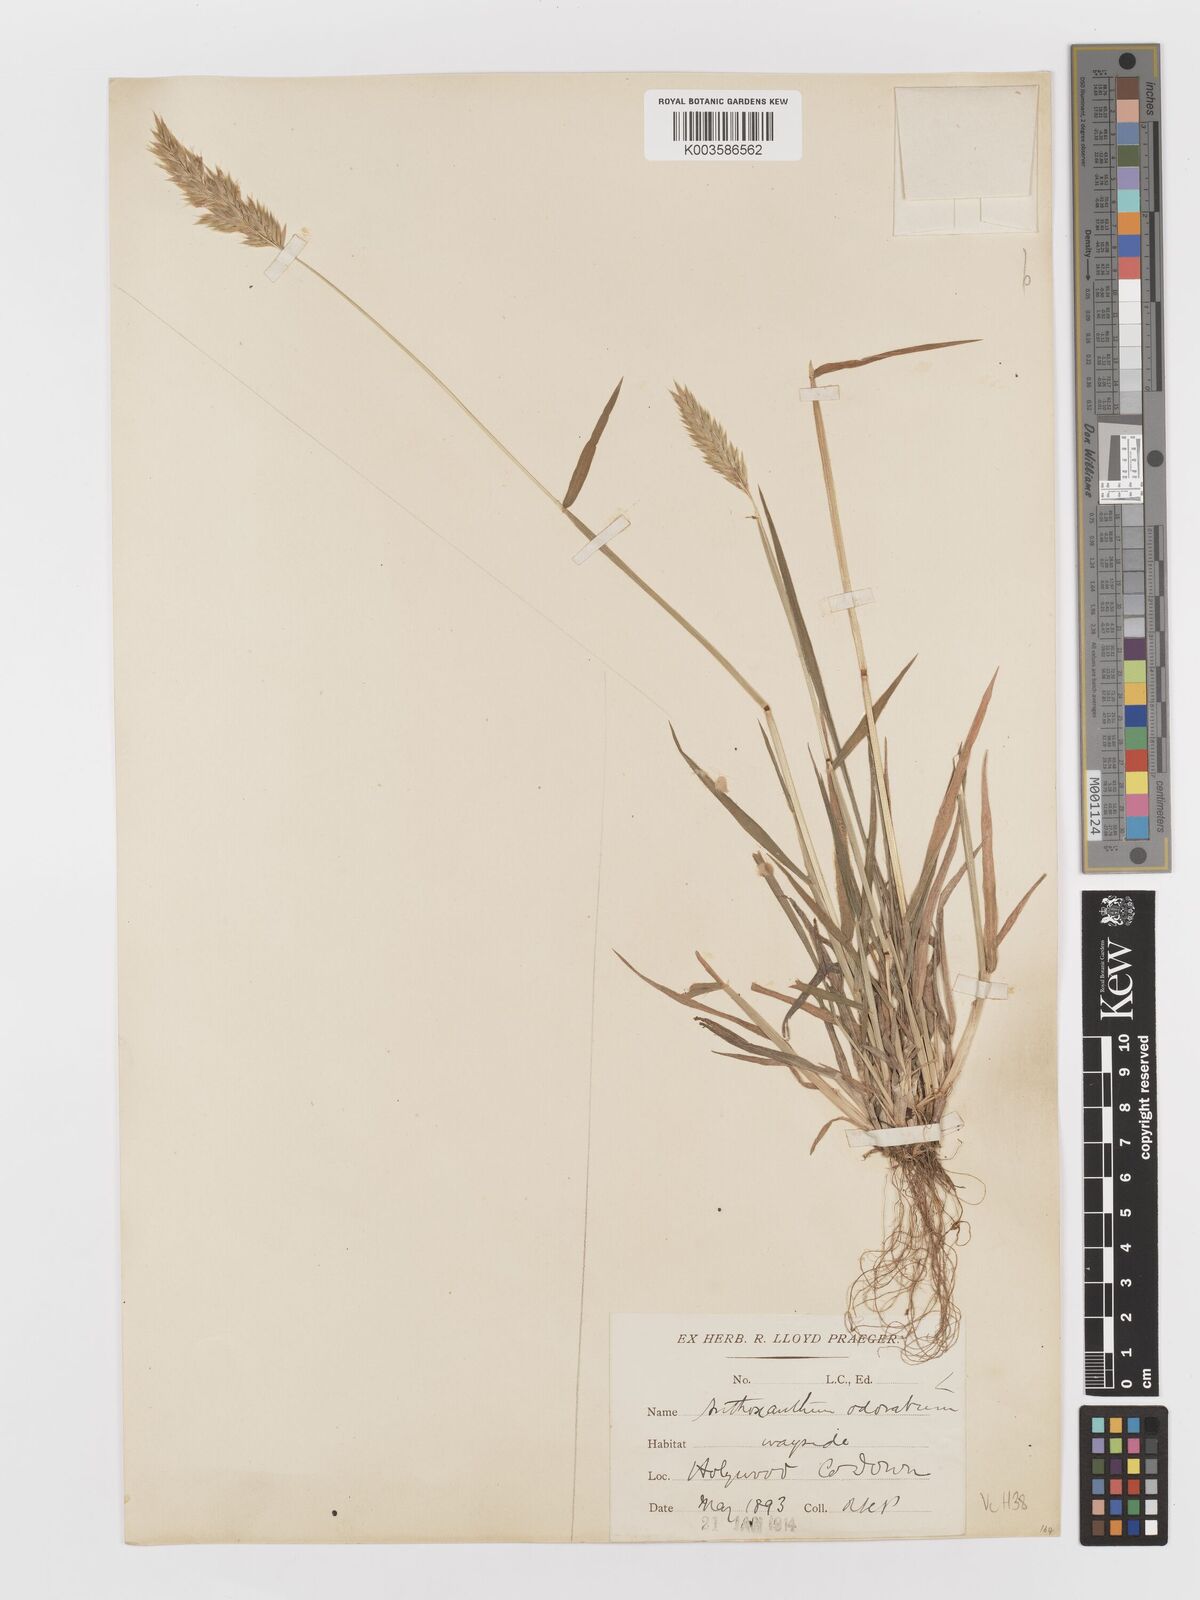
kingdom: Plantae
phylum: Tracheophyta
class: Liliopsida
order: Poales
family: Poaceae
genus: Anthoxanthum
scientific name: Anthoxanthum odoratum
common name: Sweet vernalgrass
